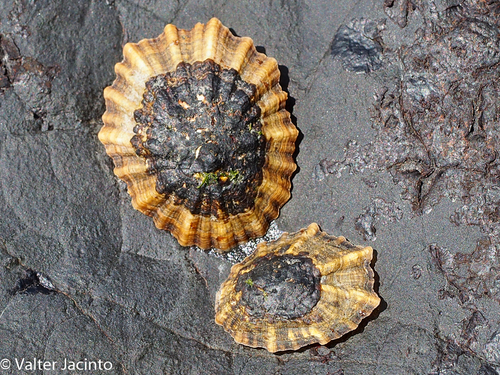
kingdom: Animalia
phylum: Mollusca
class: Gastropoda
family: Patellidae
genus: Patella
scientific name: Patella depressa
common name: Black-footed limpet
